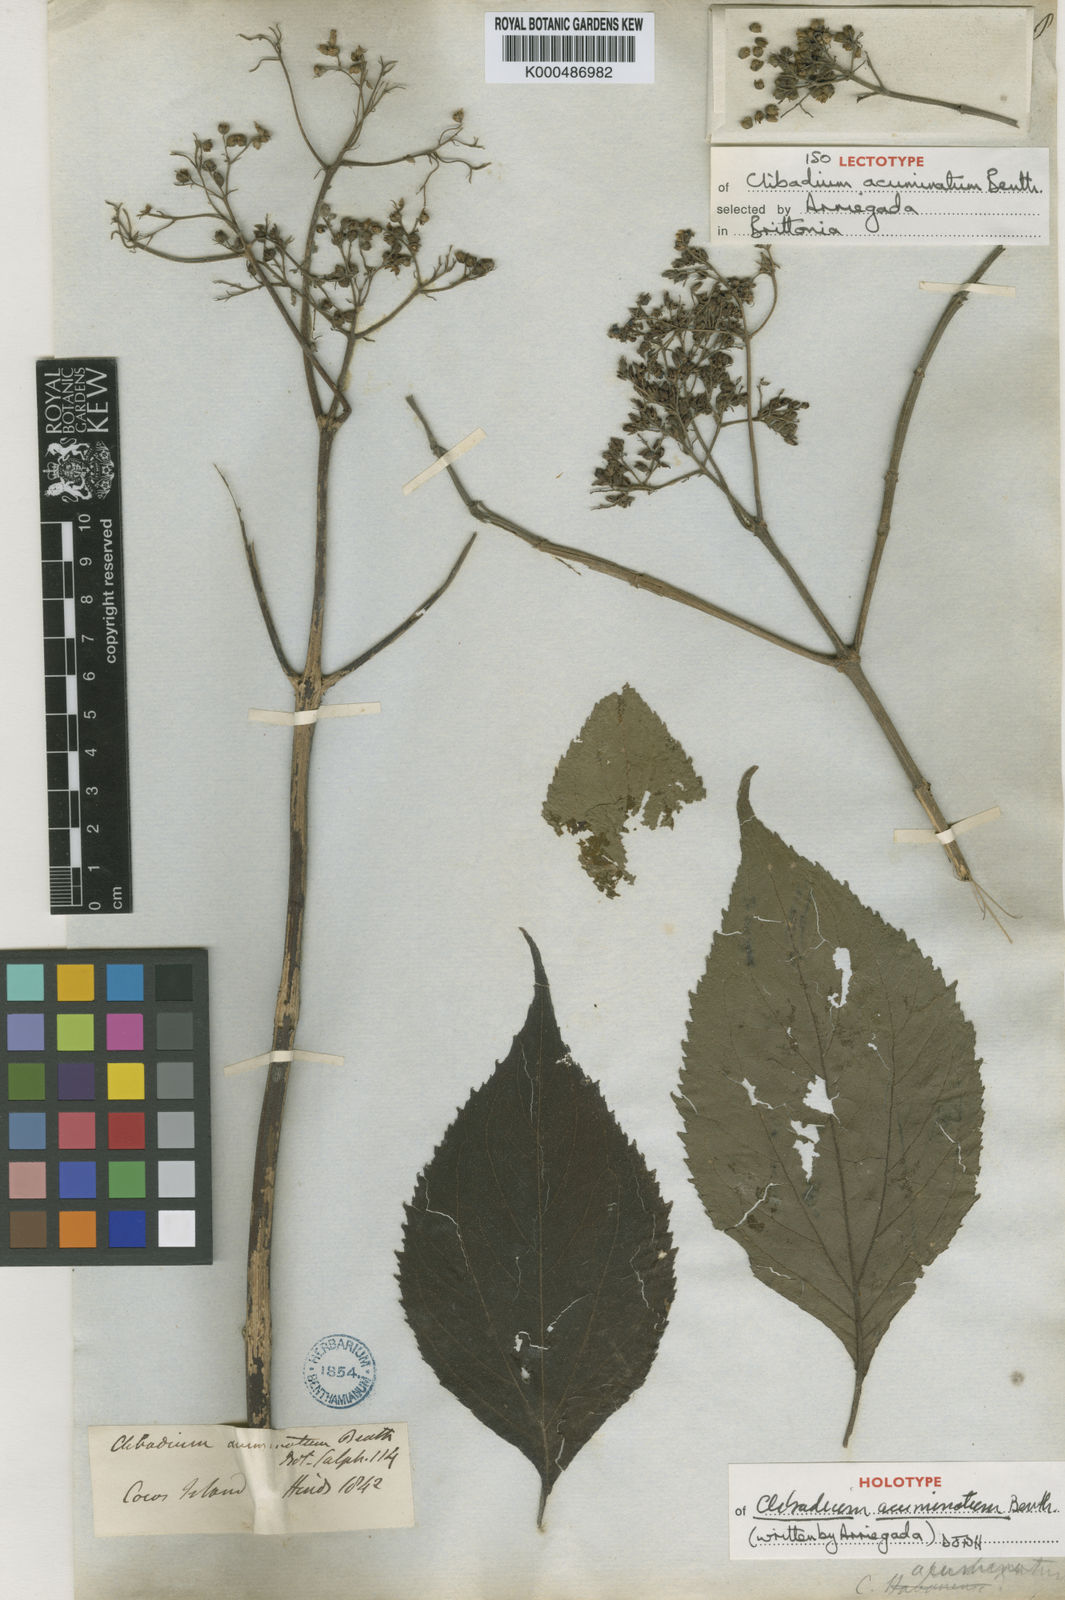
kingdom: Plantae
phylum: Tracheophyta
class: Magnoliopsida
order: Asterales
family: Asteraceae
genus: Clibadium
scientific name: Clibadium acuminatum
